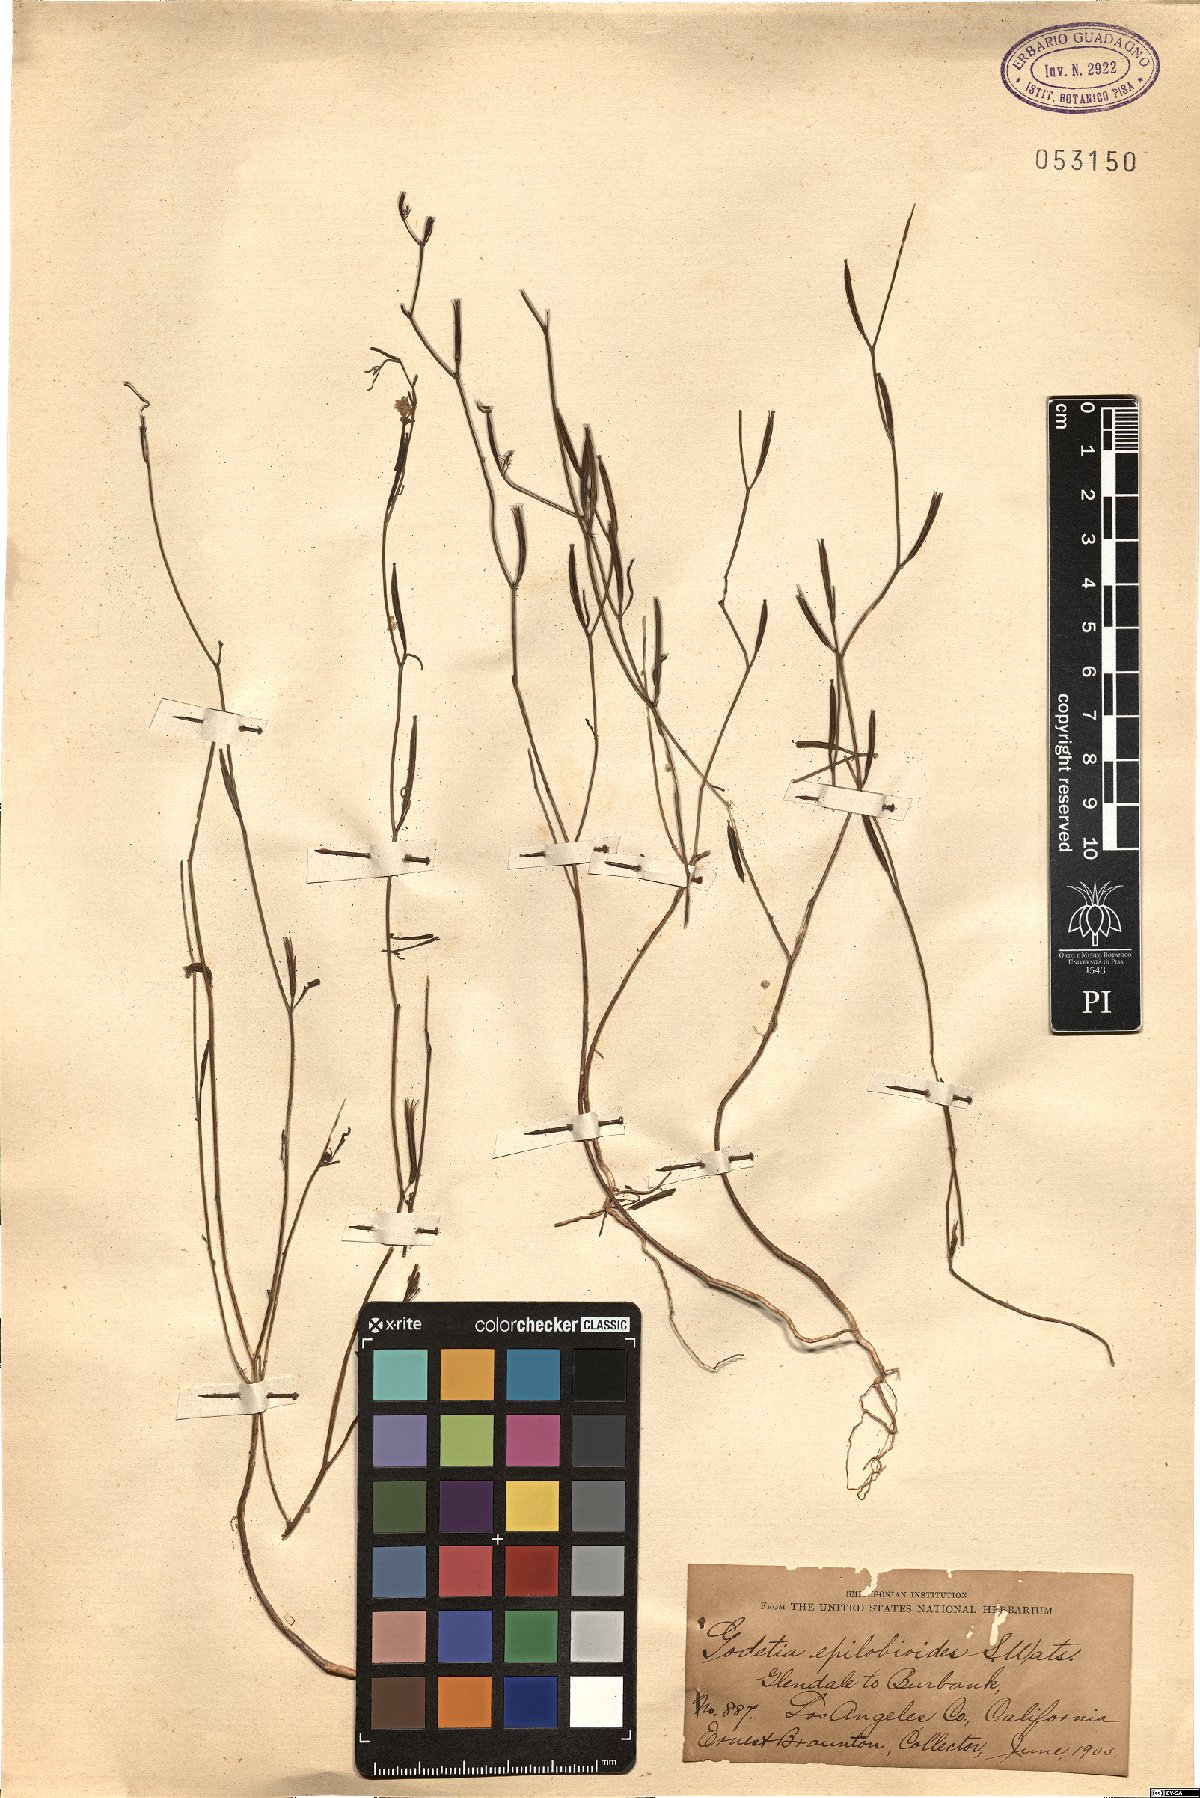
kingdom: Plantae
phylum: Tracheophyta
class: Magnoliopsida
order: Myrtales
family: Onagraceae
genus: Clarkia
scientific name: Clarkia epilobioides
